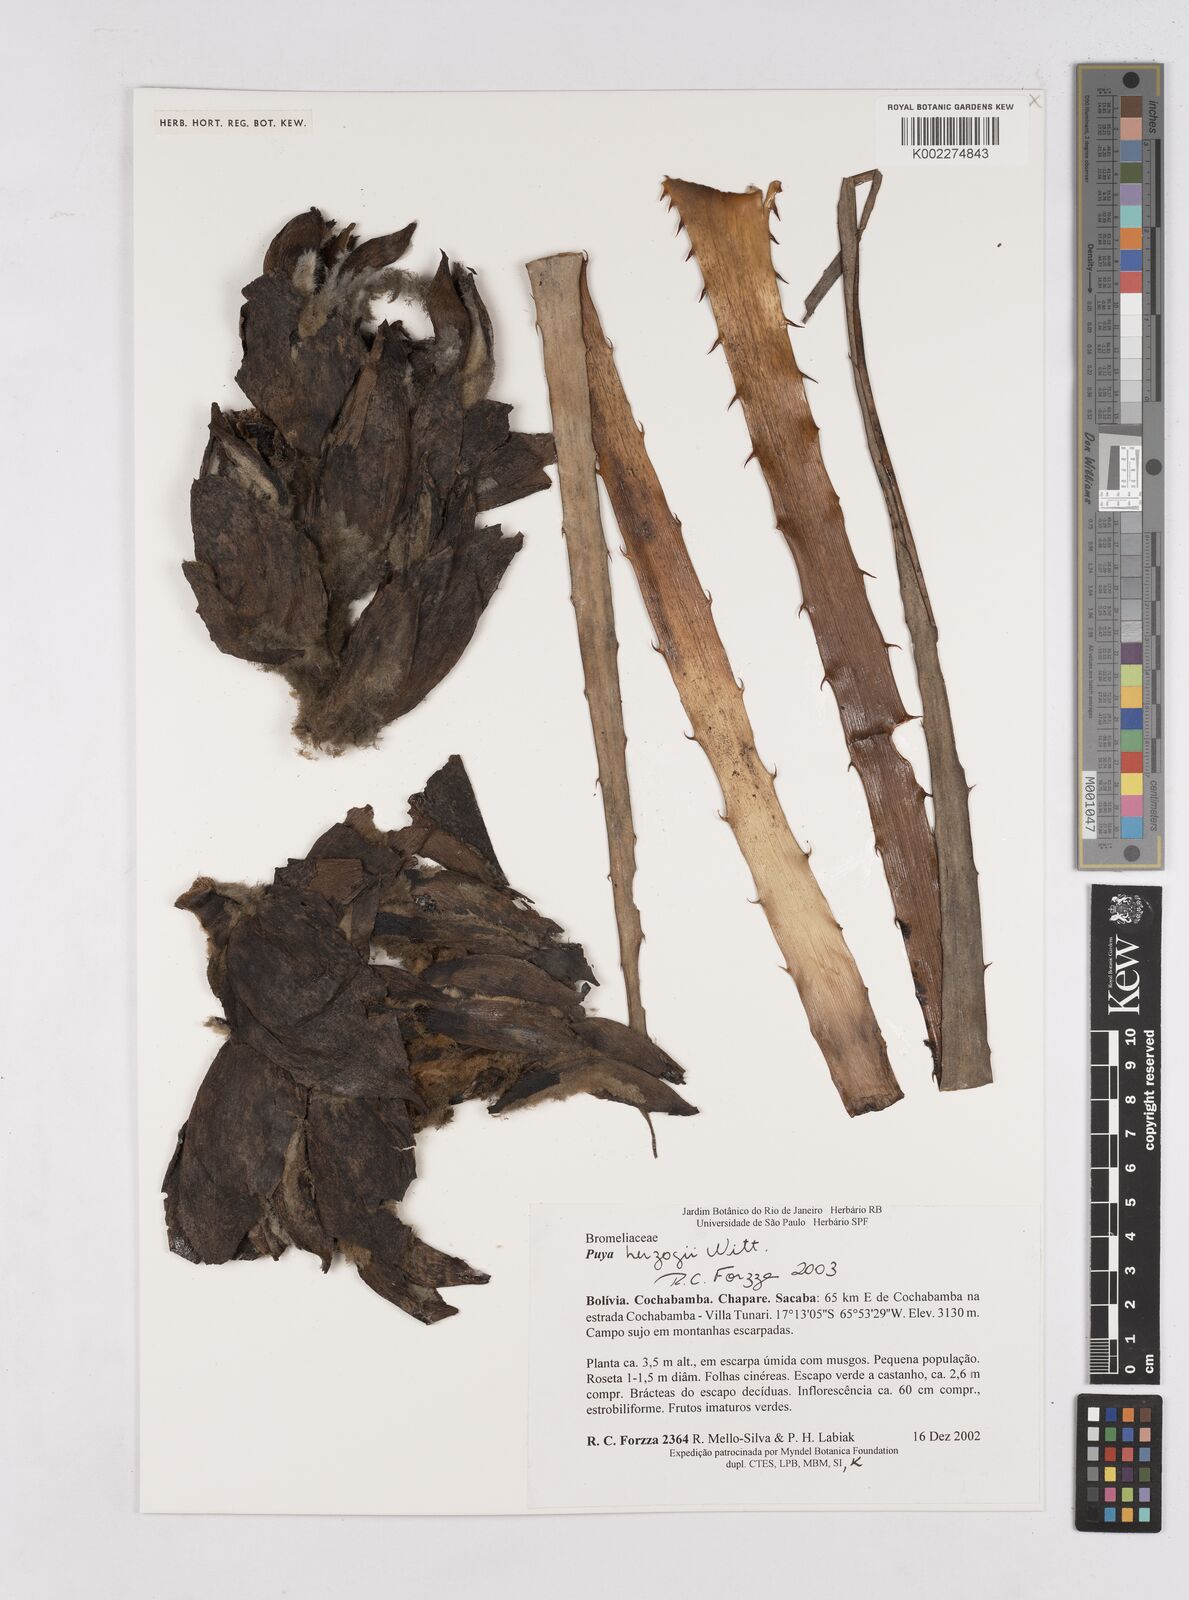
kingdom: Plantae
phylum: Tracheophyta
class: Liliopsida
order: Poales
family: Bromeliaceae
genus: Puya
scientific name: Puya herzogii
